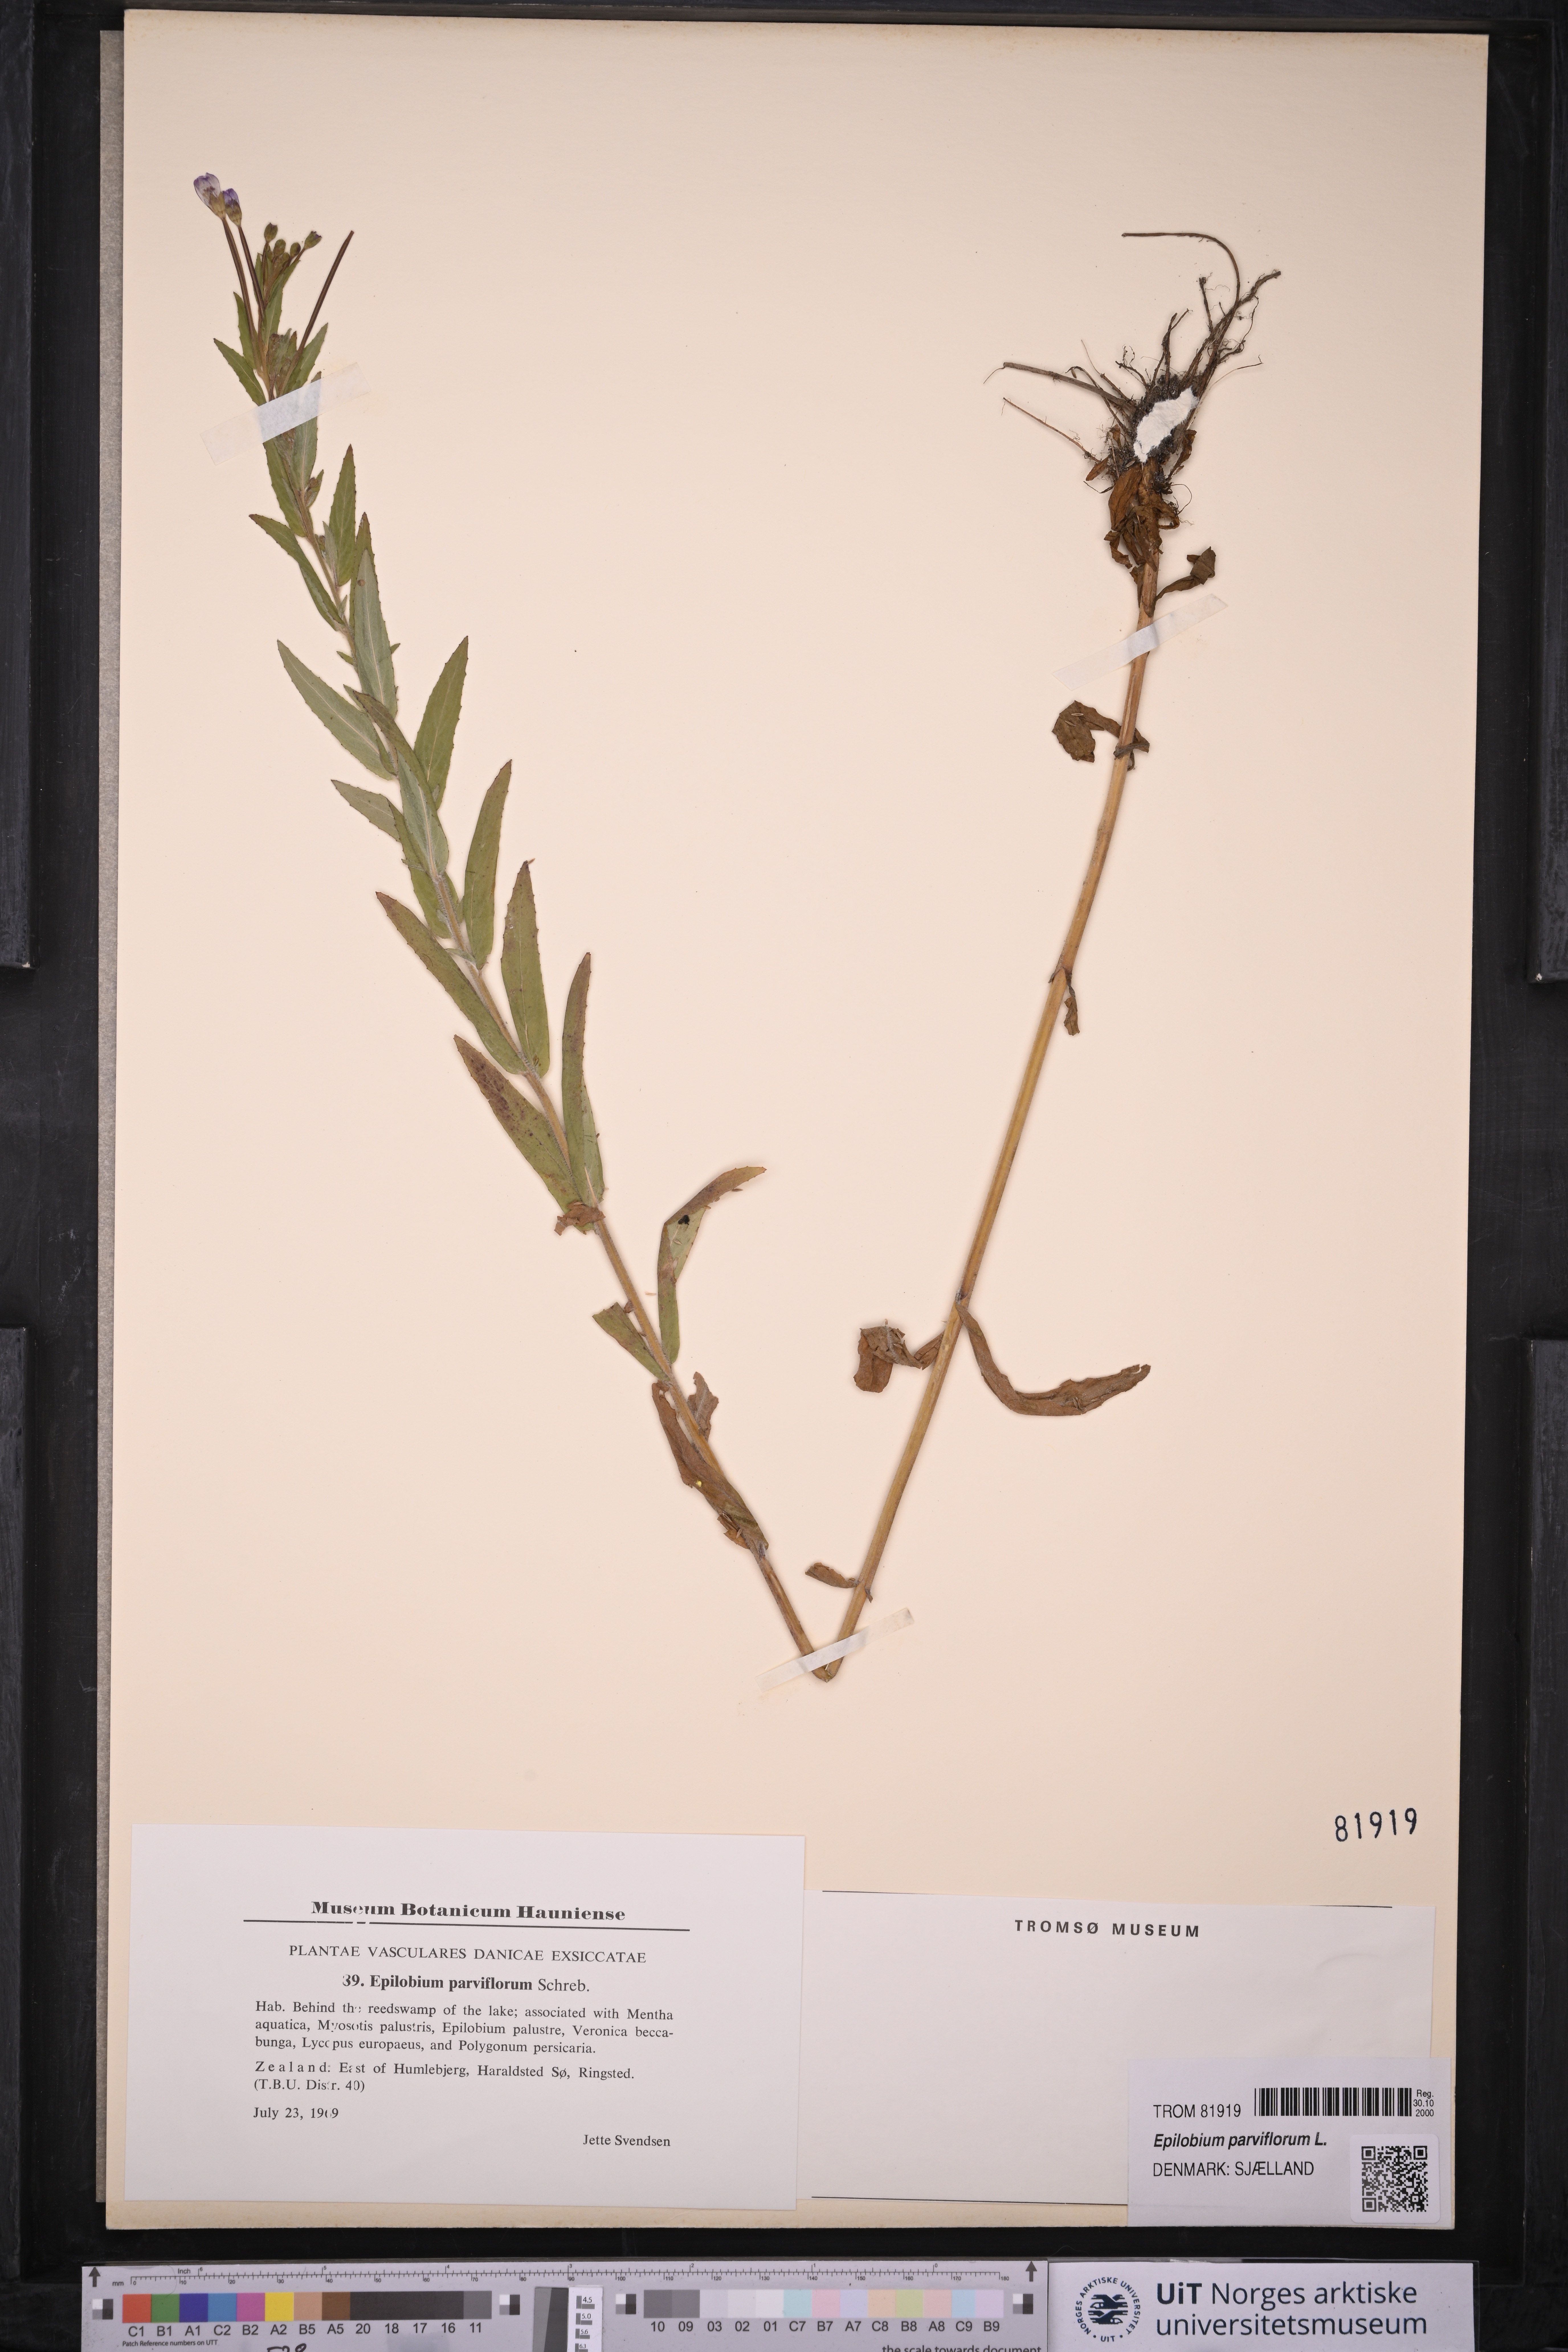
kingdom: Plantae
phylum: Tracheophyta
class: Magnoliopsida
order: Myrtales
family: Onagraceae
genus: Epilobium
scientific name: Epilobium parviflorum
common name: Hoary willowherb
